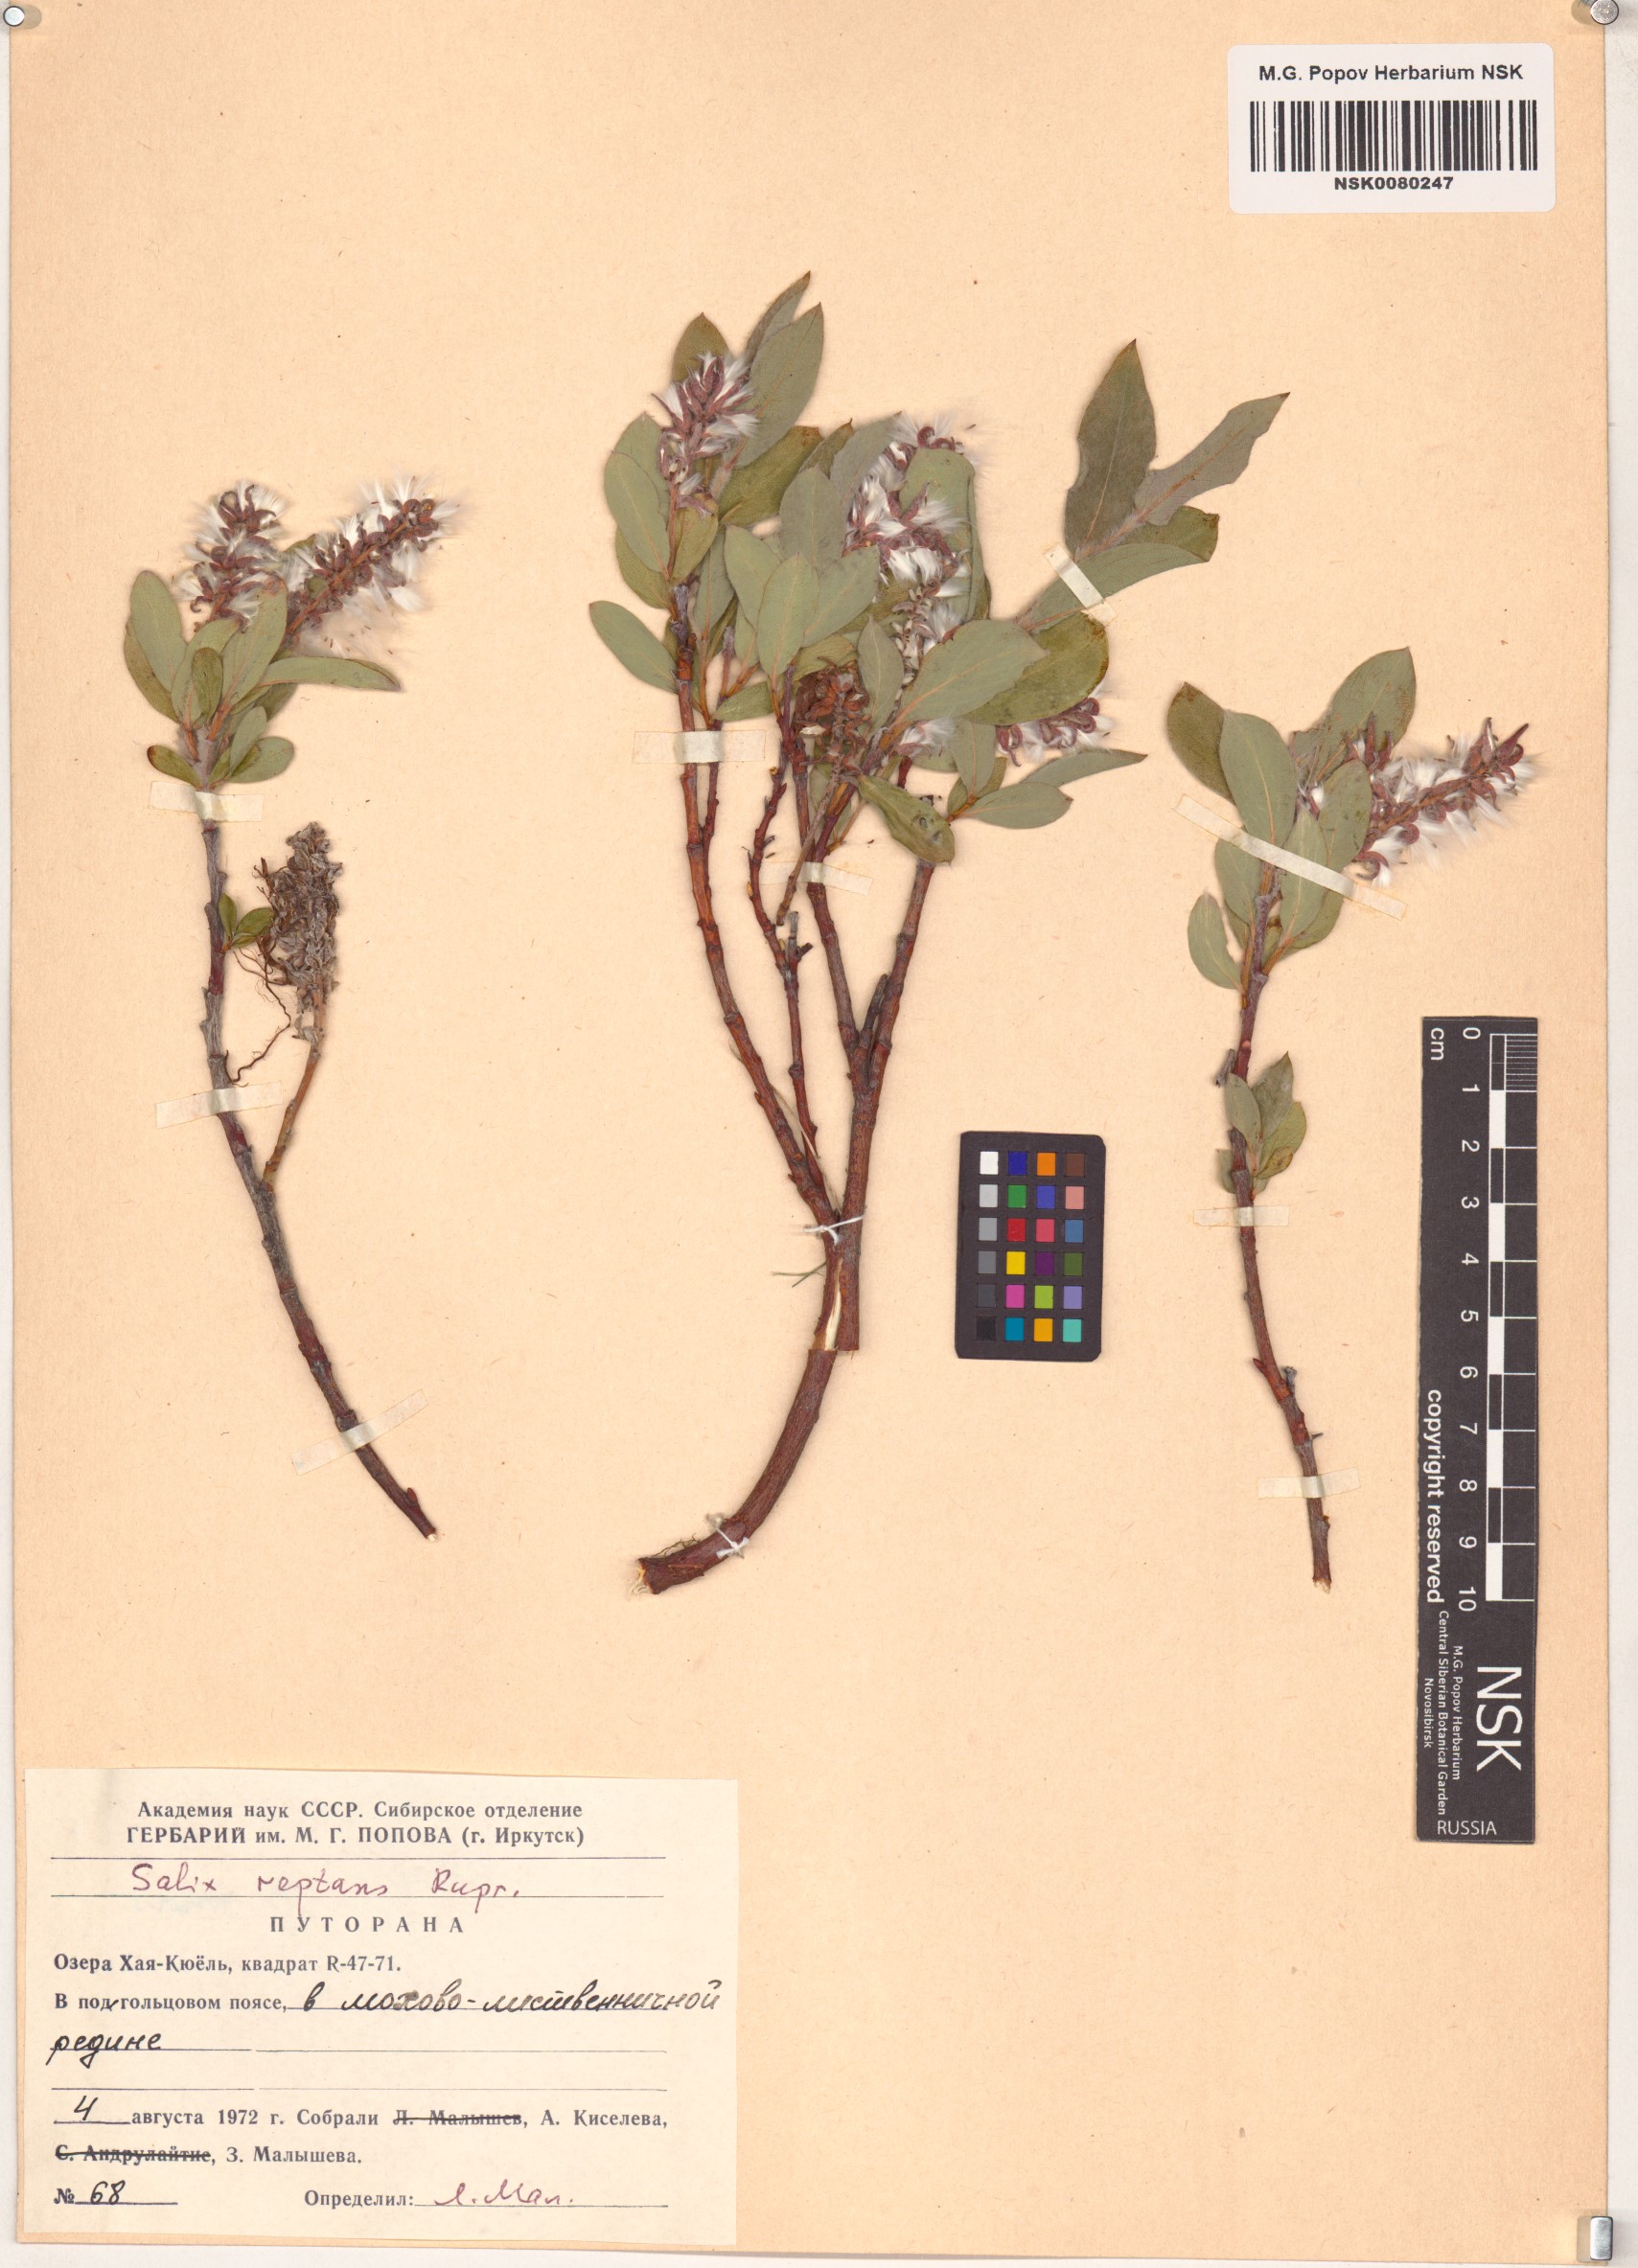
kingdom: Plantae
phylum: Tracheophyta
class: Magnoliopsida
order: Malpighiales
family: Salicaceae
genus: Salix
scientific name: Salix reptans
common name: Arctic creeping willow
